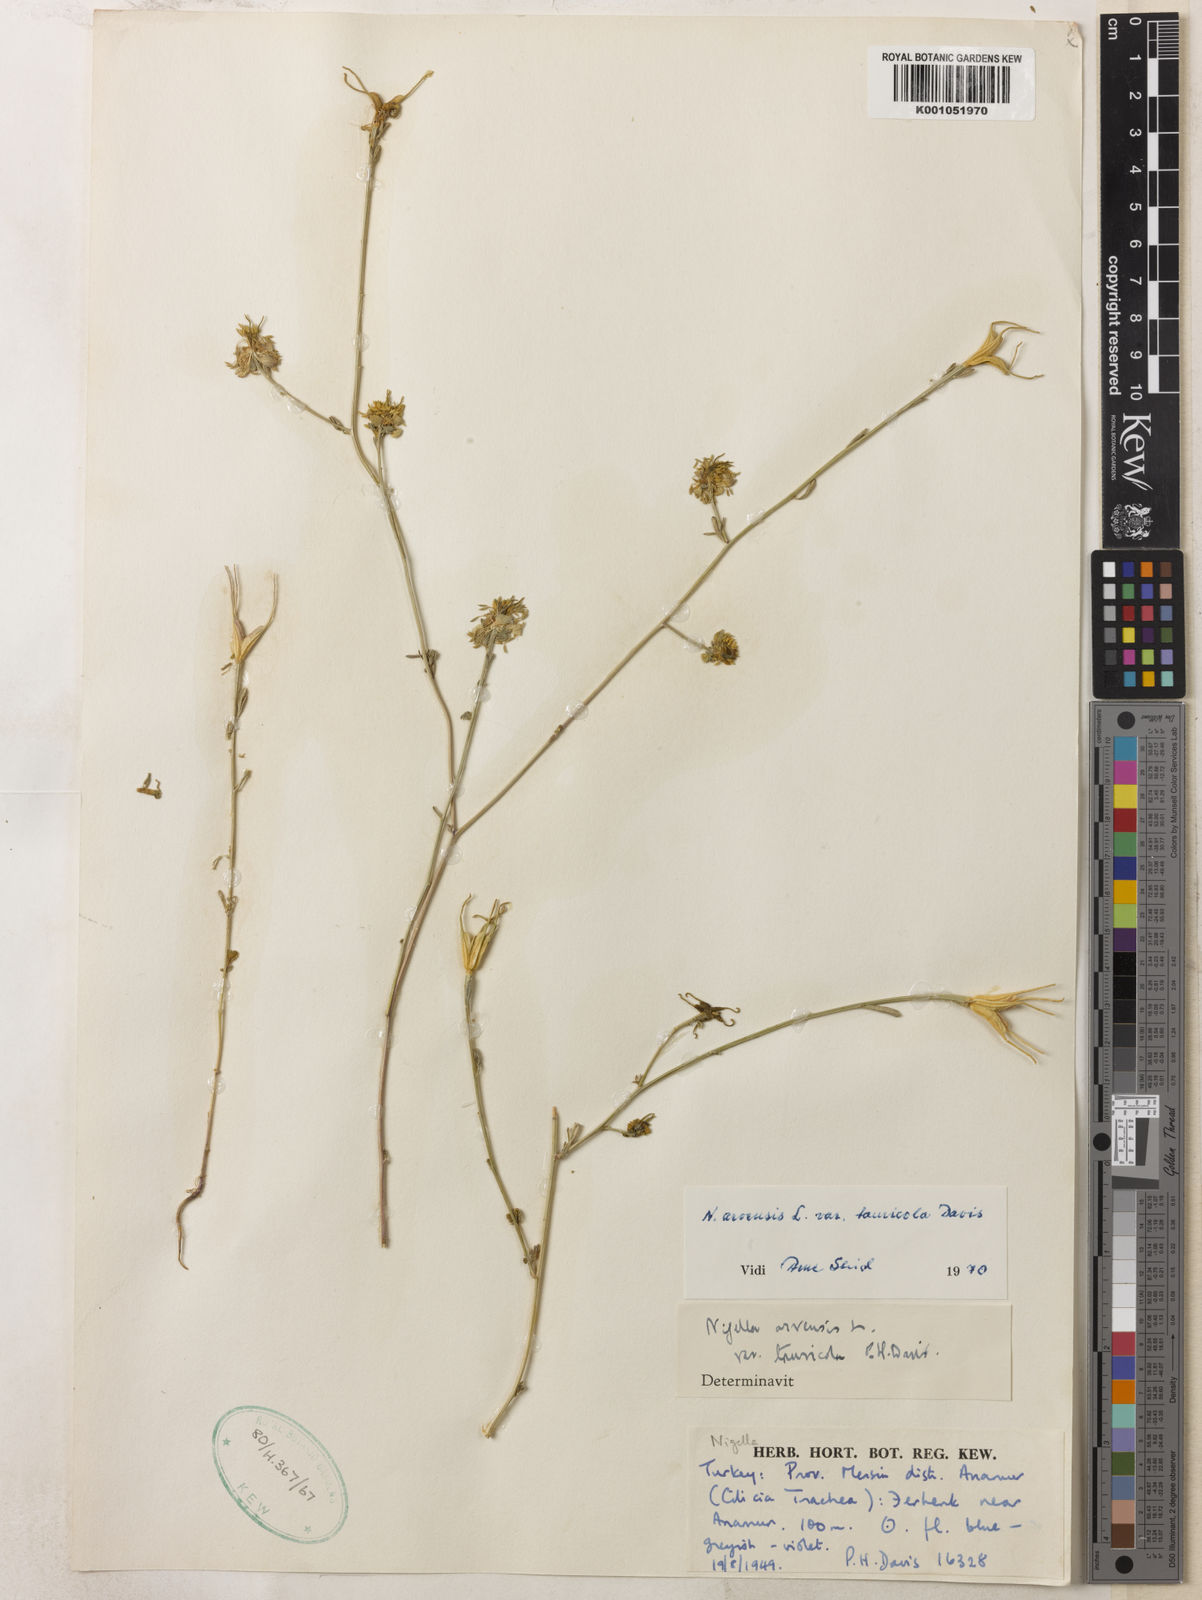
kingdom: Plantae
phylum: Tracheophyta
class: Magnoliopsida
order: Ranunculales
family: Ranunculaceae
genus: Nigella
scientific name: Nigella arvensis
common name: Wild fennel-flower
